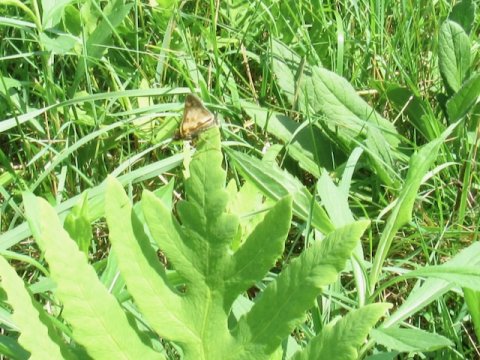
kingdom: Animalia
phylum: Arthropoda
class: Insecta
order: Lepidoptera
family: Hesperiidae
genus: Polites
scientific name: Polites coras
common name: Peck's Skipper
